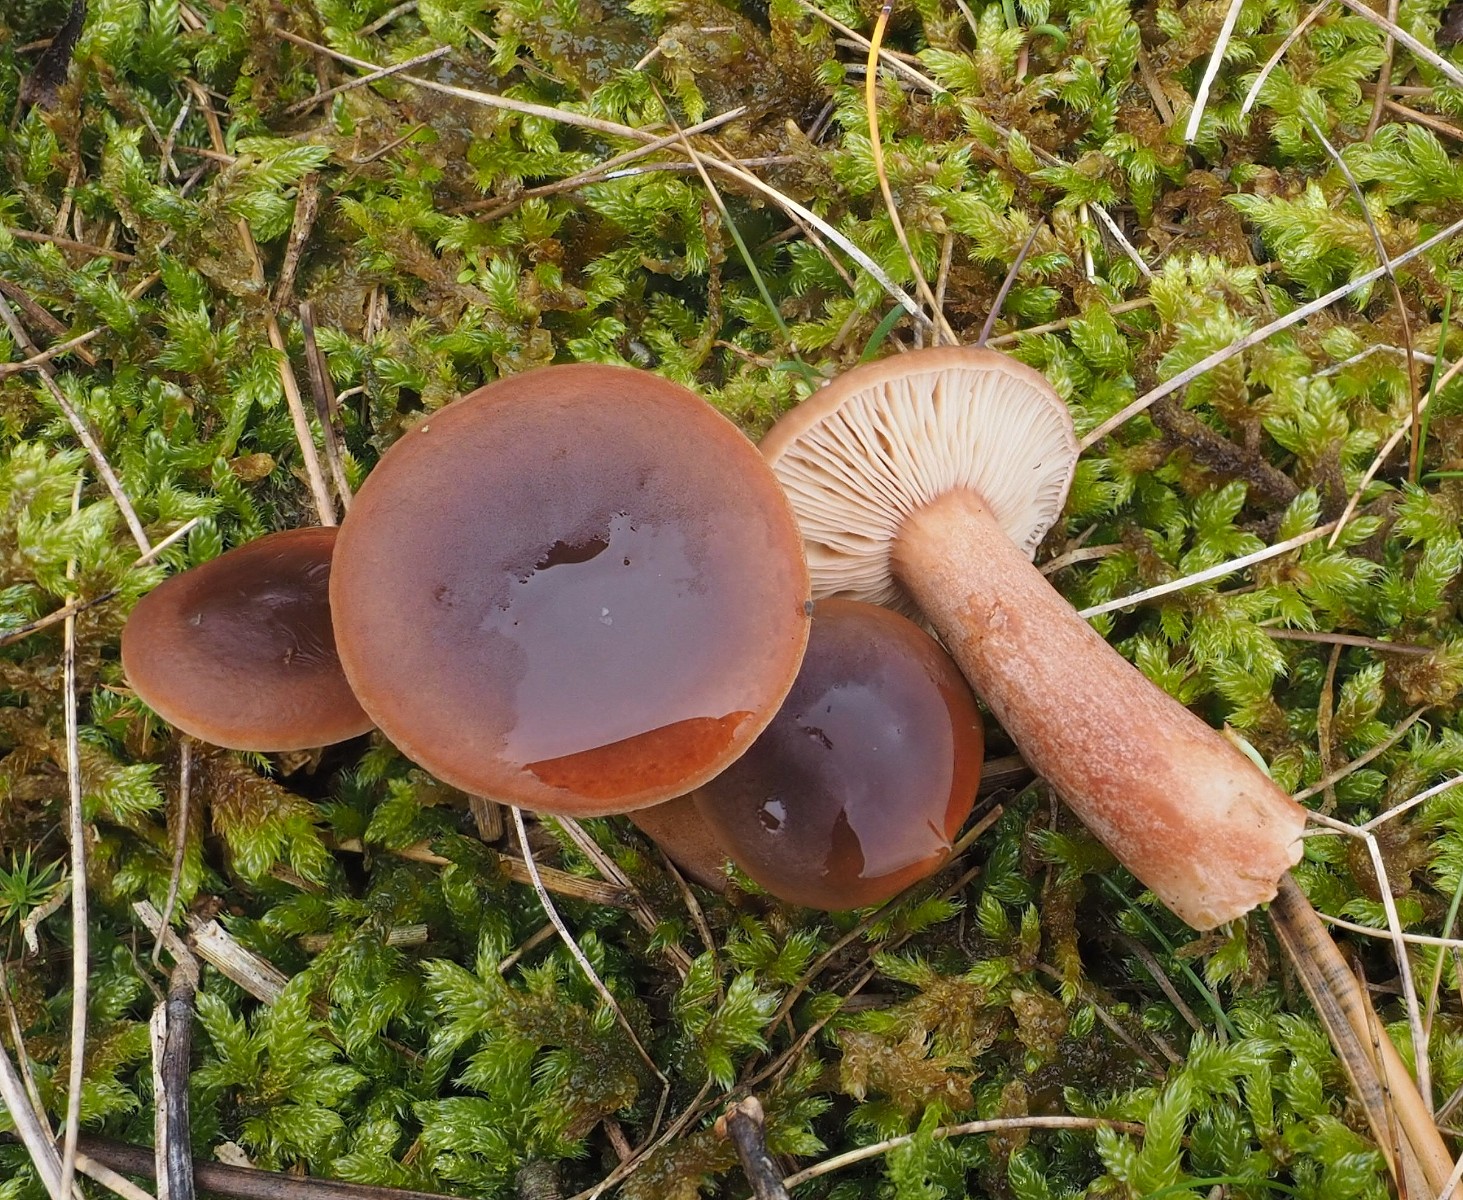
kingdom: Fungi
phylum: Basidiomycota
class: Agaricomycetes
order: Russulales
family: Russulaceae
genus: Lactarius
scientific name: Lactarius hepaticus
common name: leverbrun mælkehat
